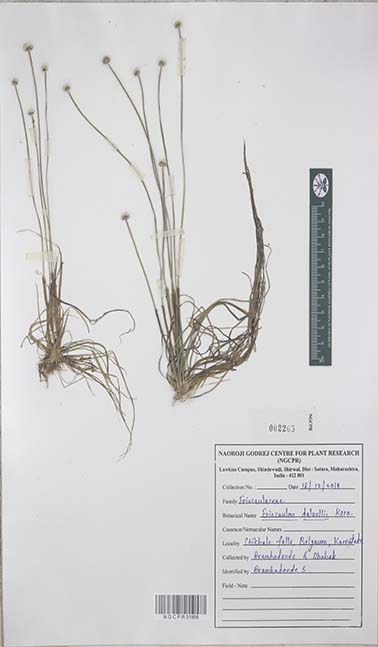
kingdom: Plantae
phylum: Tracheophyta
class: Liliopsida
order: Poales
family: Eriocaulaceae
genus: Eriocaulon
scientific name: Eriocaulon dalzellii
